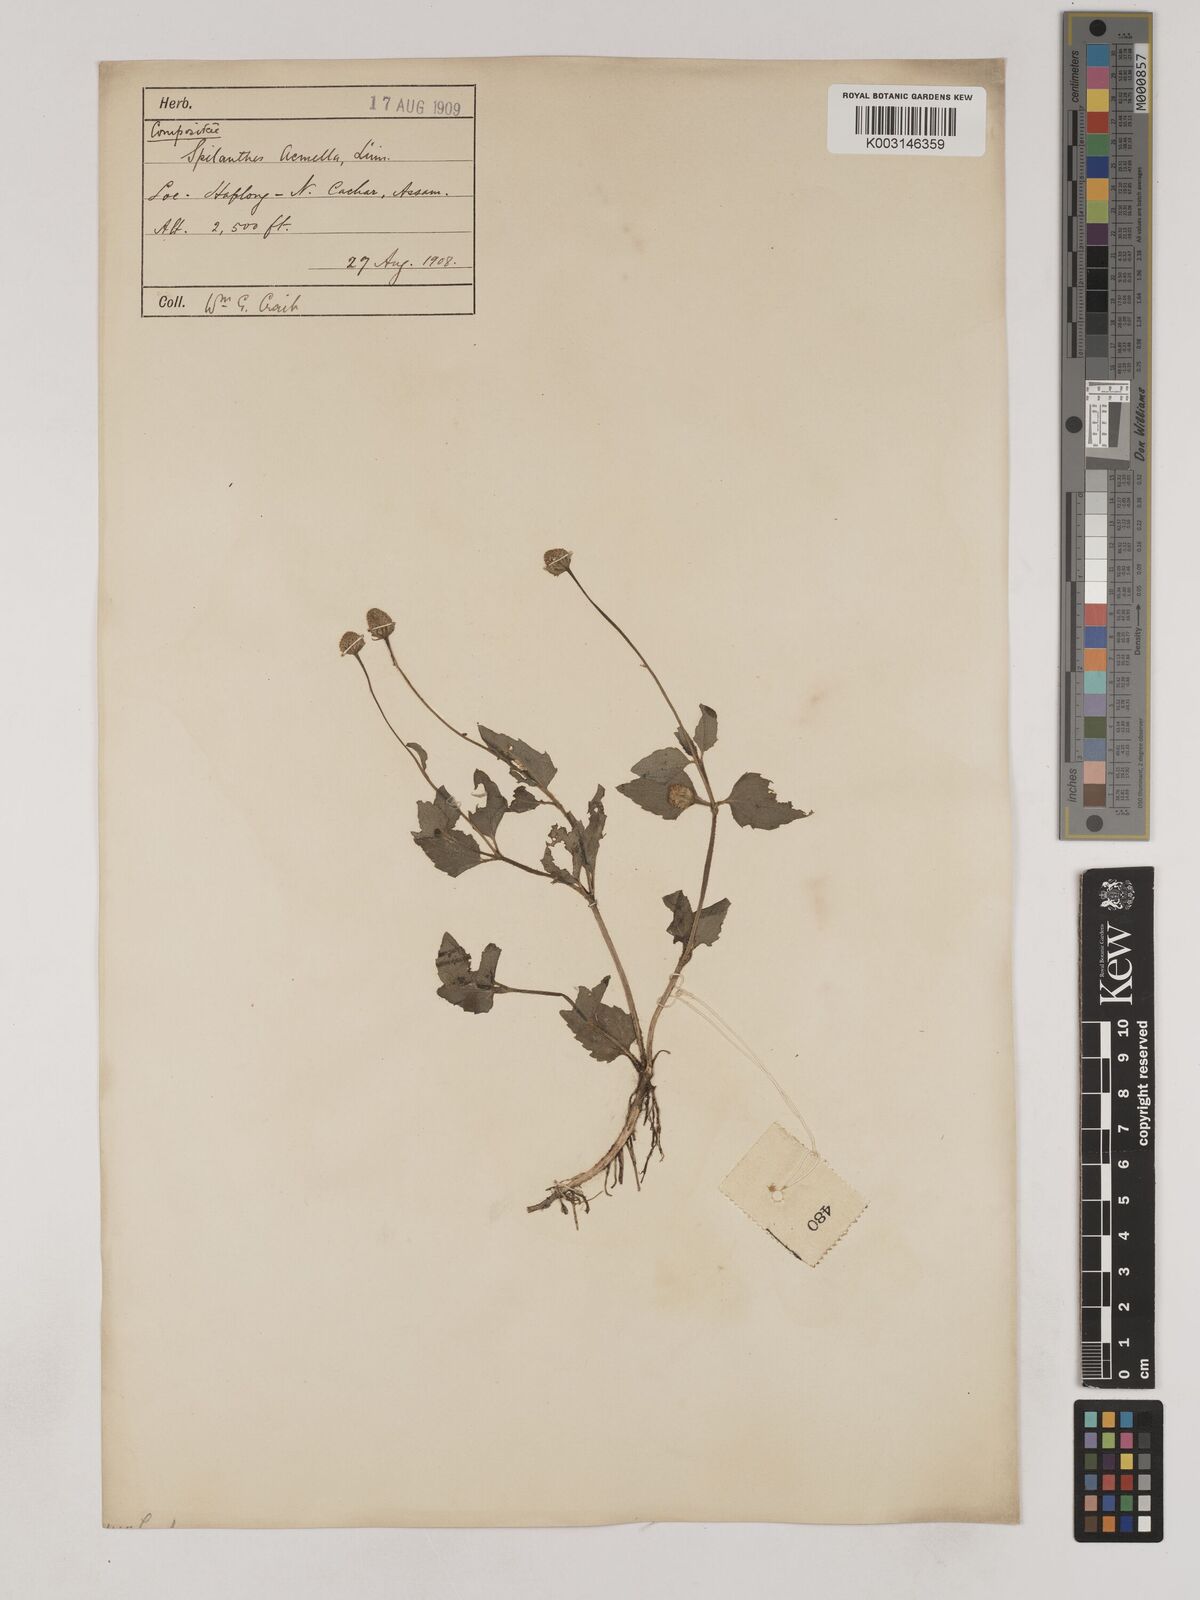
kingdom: Plantae
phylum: Tracheophyta
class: Magnoliopsida
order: Asterales
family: Asteraceae
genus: Acmella
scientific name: Acmella paniculata
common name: Panicled spot flower
